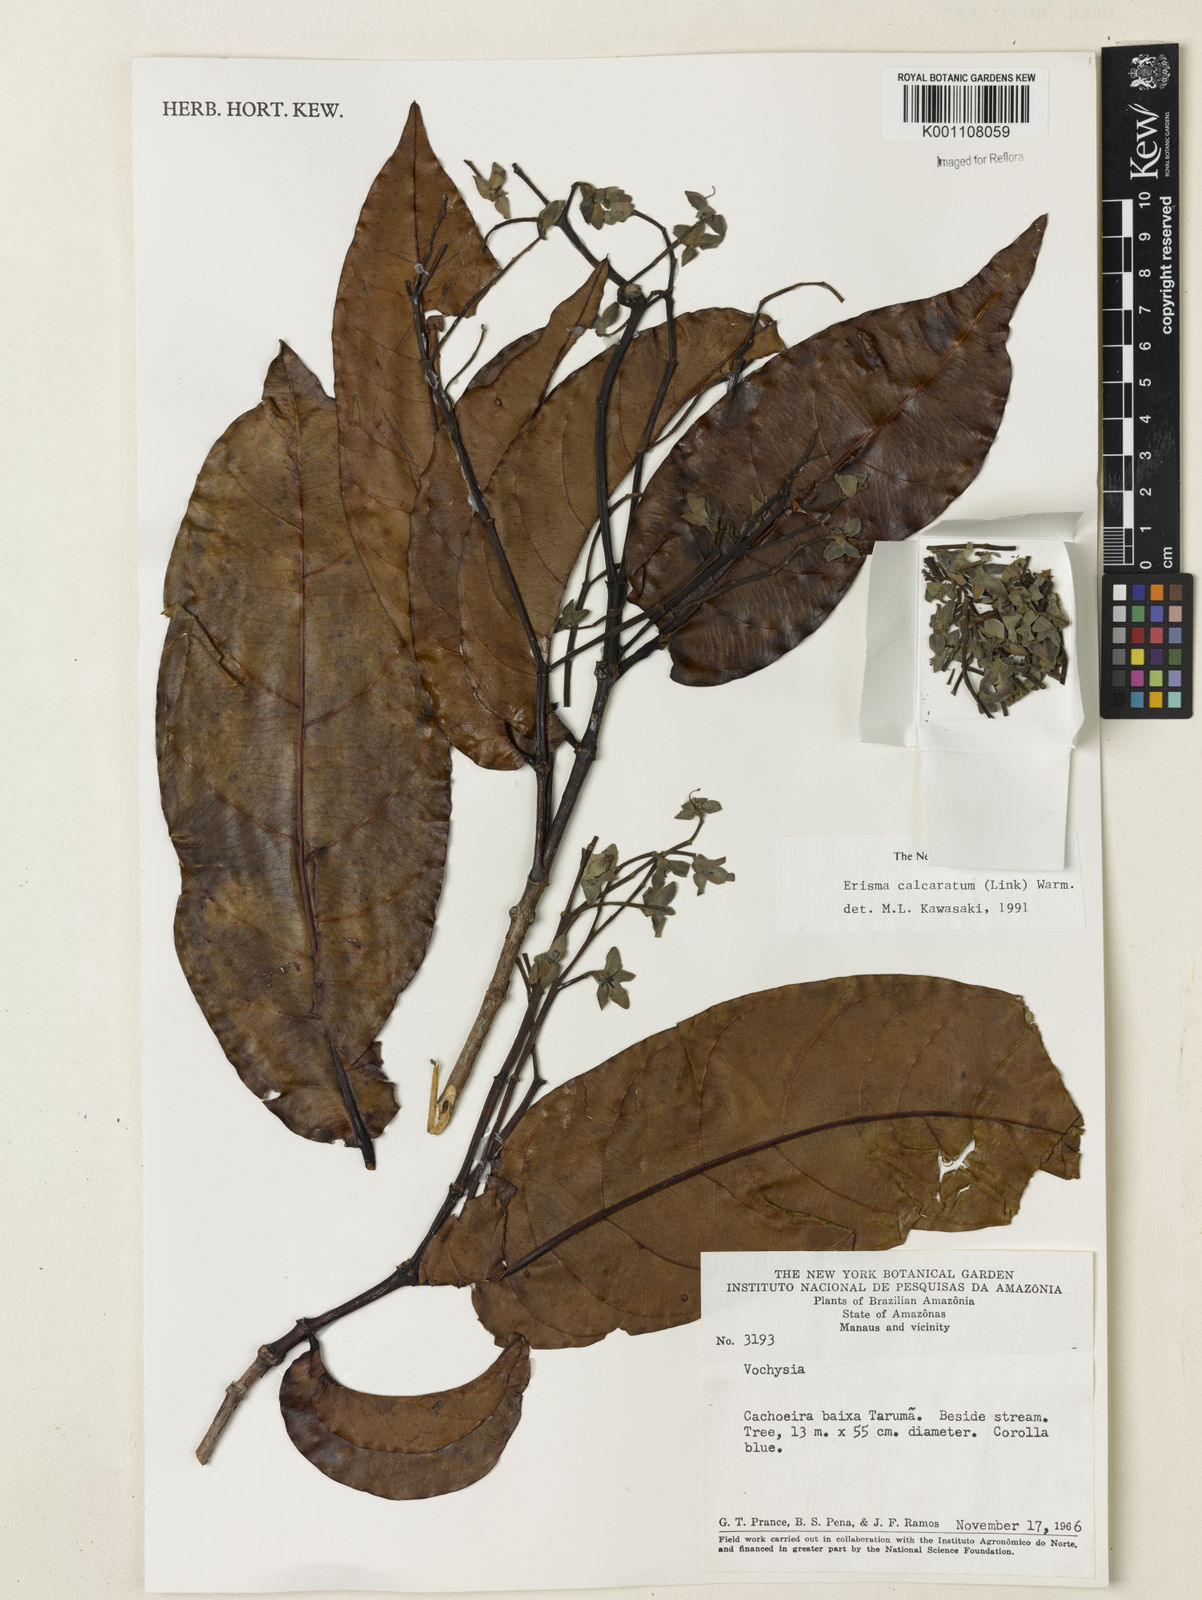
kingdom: Plantae
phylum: Tracheophyta
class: Magnoliopsida
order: Myrtales
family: Vochysiaceae
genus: Erisma
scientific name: Erisma calcaratum
